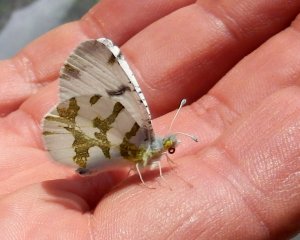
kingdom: Animalia
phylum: Arthropoda
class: Insecta
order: Lepidoptera
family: Pieridae
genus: Euchloe
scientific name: Euchloe olympia
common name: Olympia Marble
